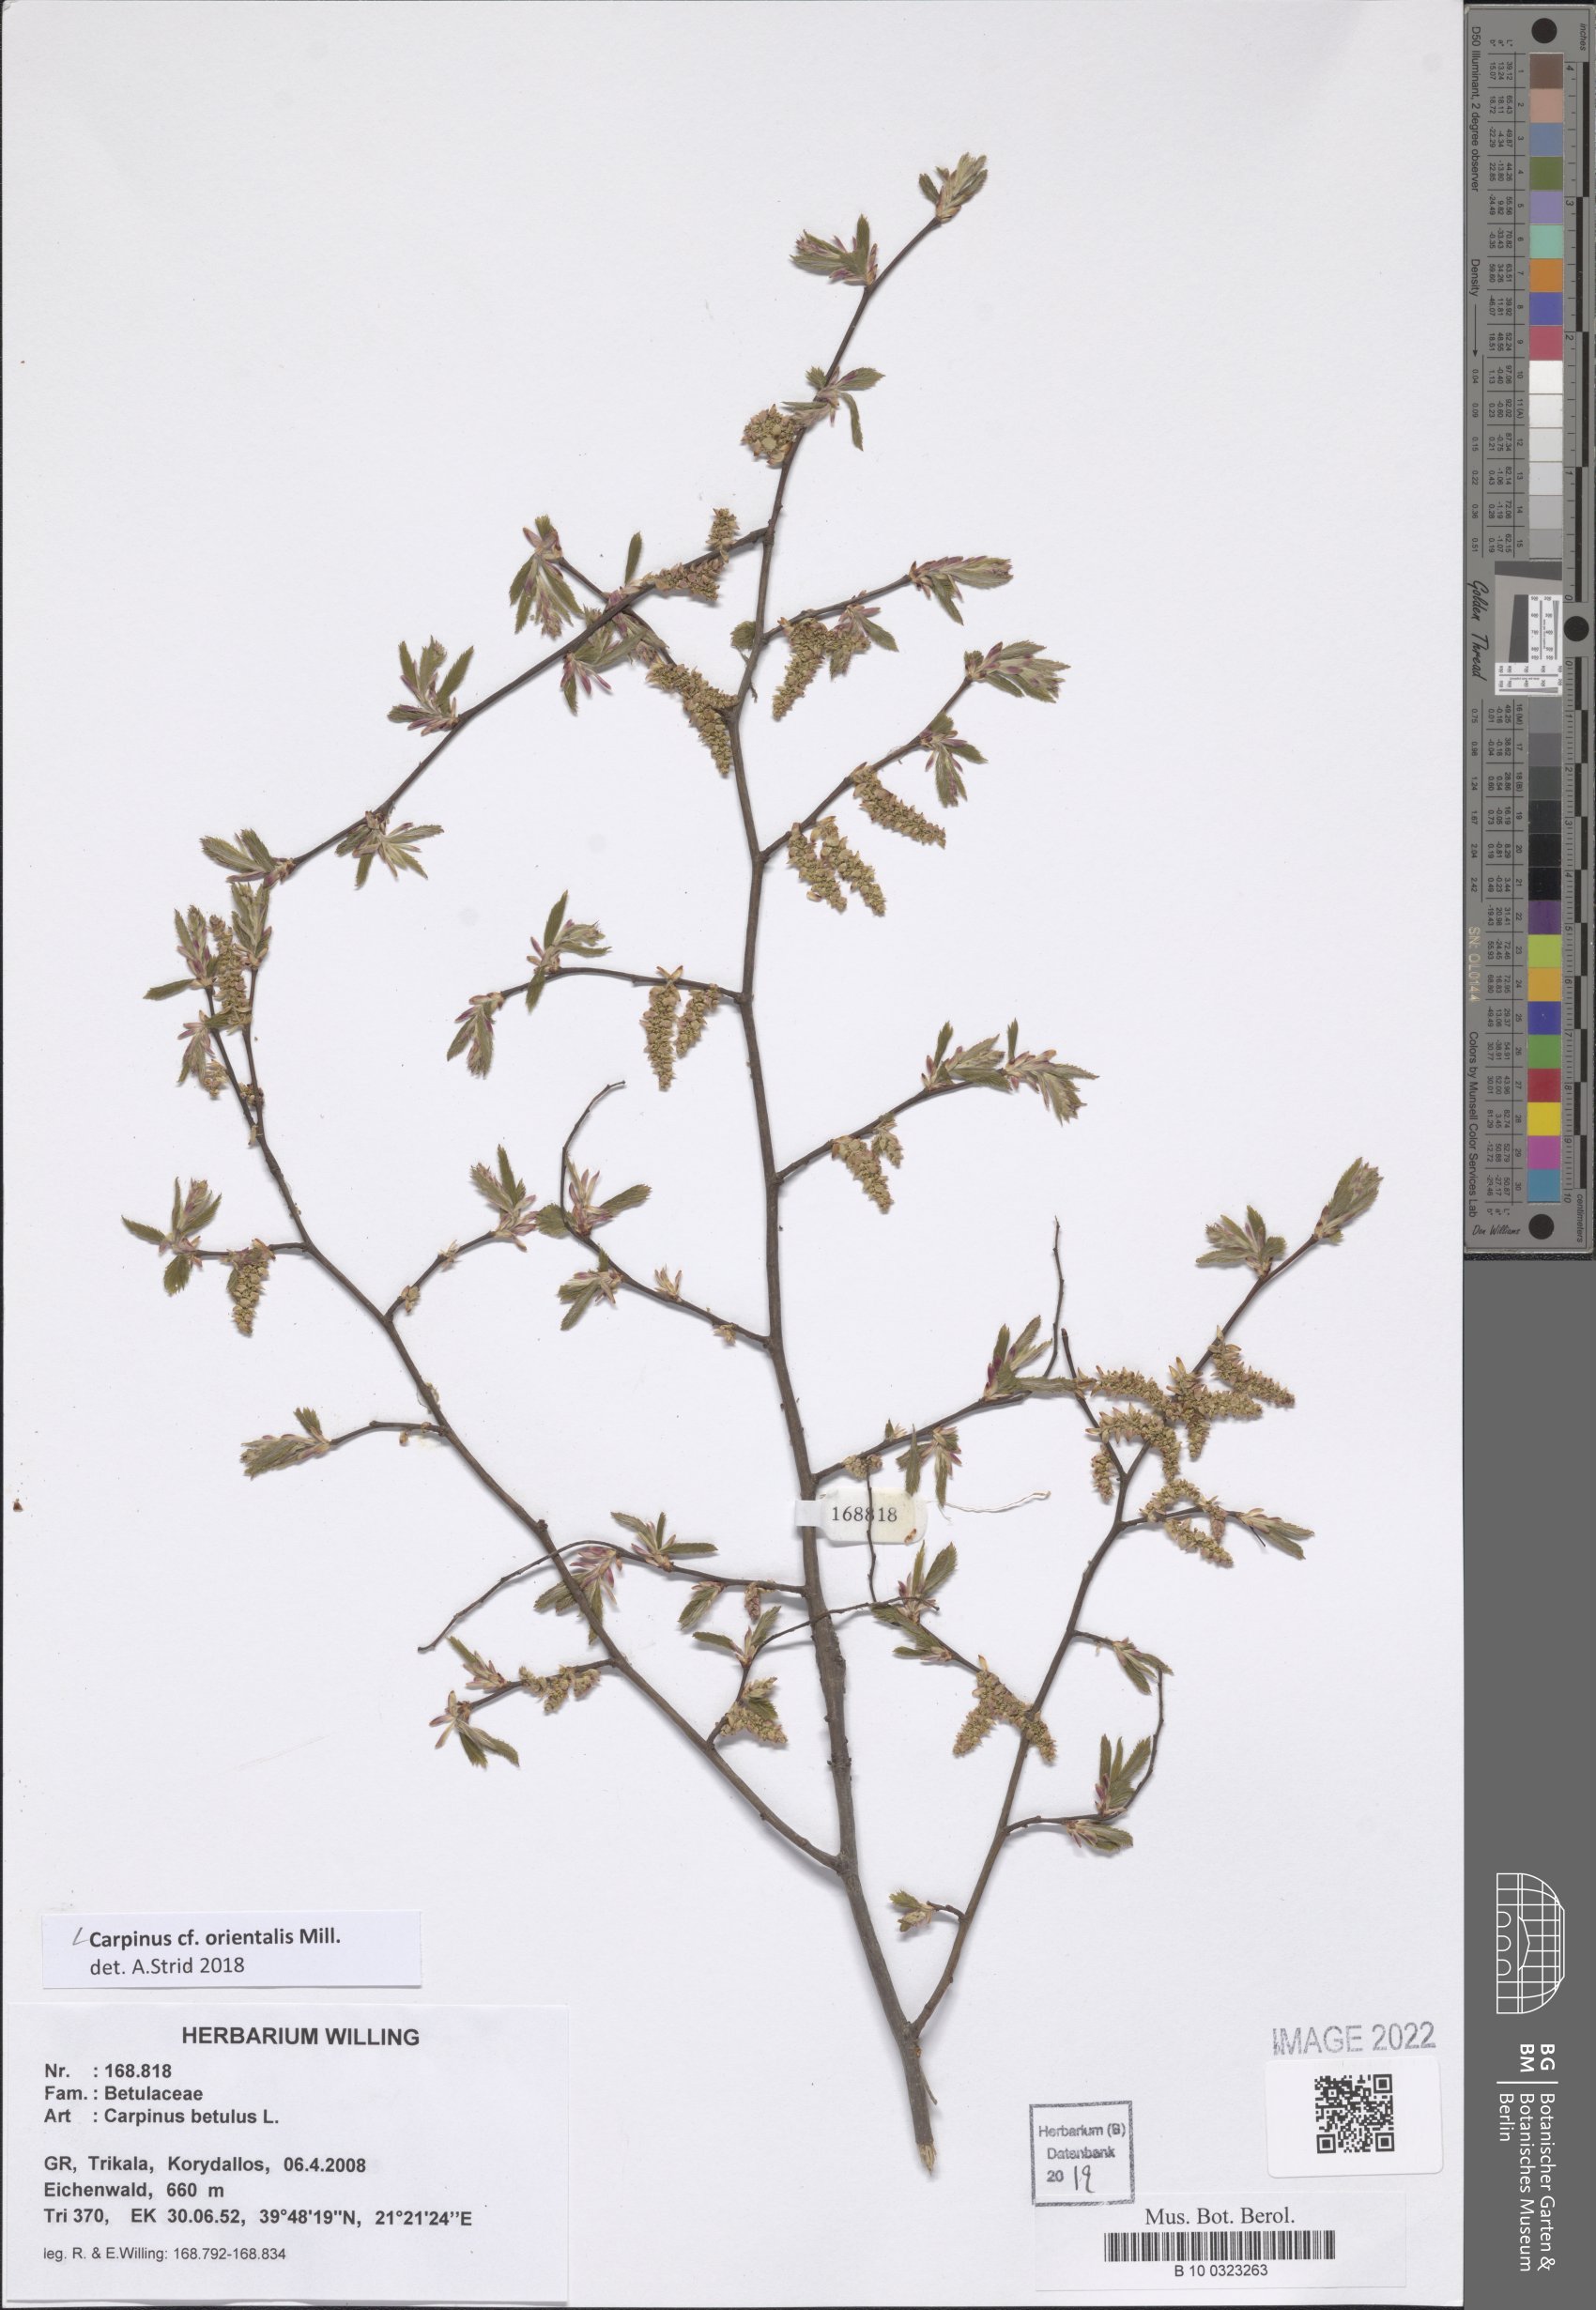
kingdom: Plantae
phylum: Tracheophyta
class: Magnoliopsida
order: Fagales
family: Betulaceae
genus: Carpinus
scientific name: Carpinus orientalis
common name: Eastern hornbeam
